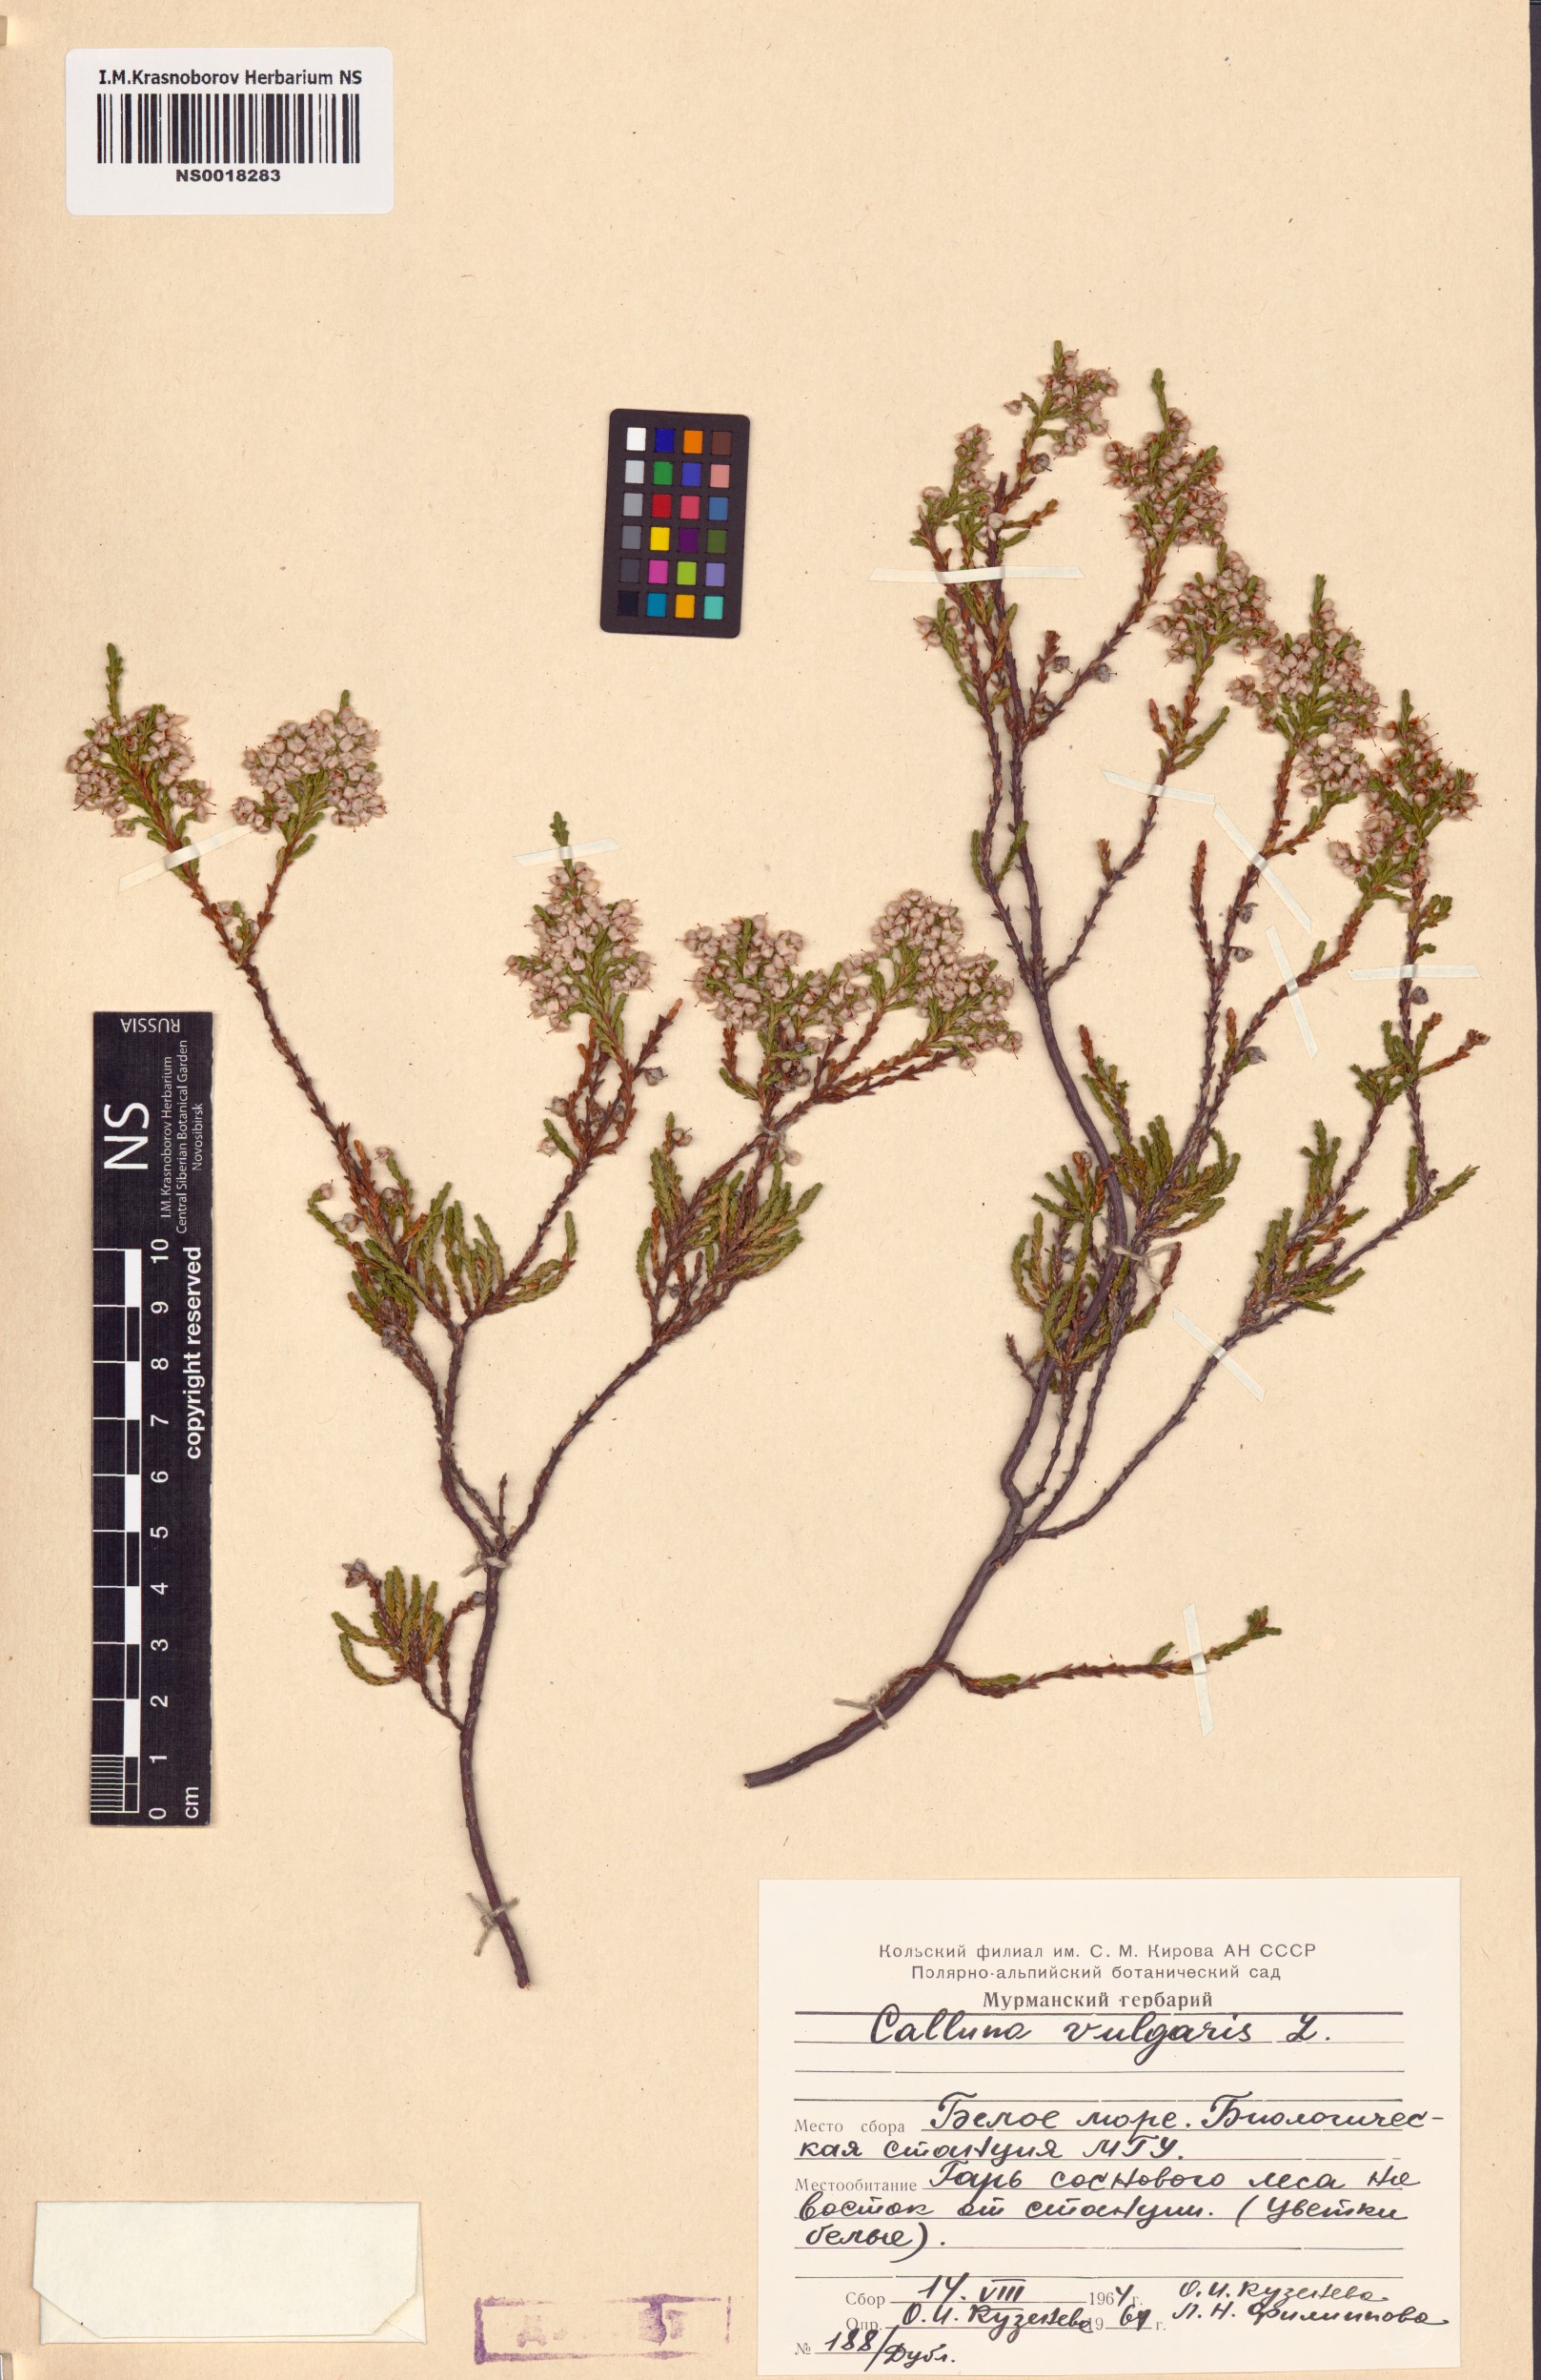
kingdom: Plantae
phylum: Tracheophyta
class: Magnoliopsida
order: Ericales
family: Ericaceae
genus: Calluna
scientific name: Calluna vulgaris
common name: Heather
